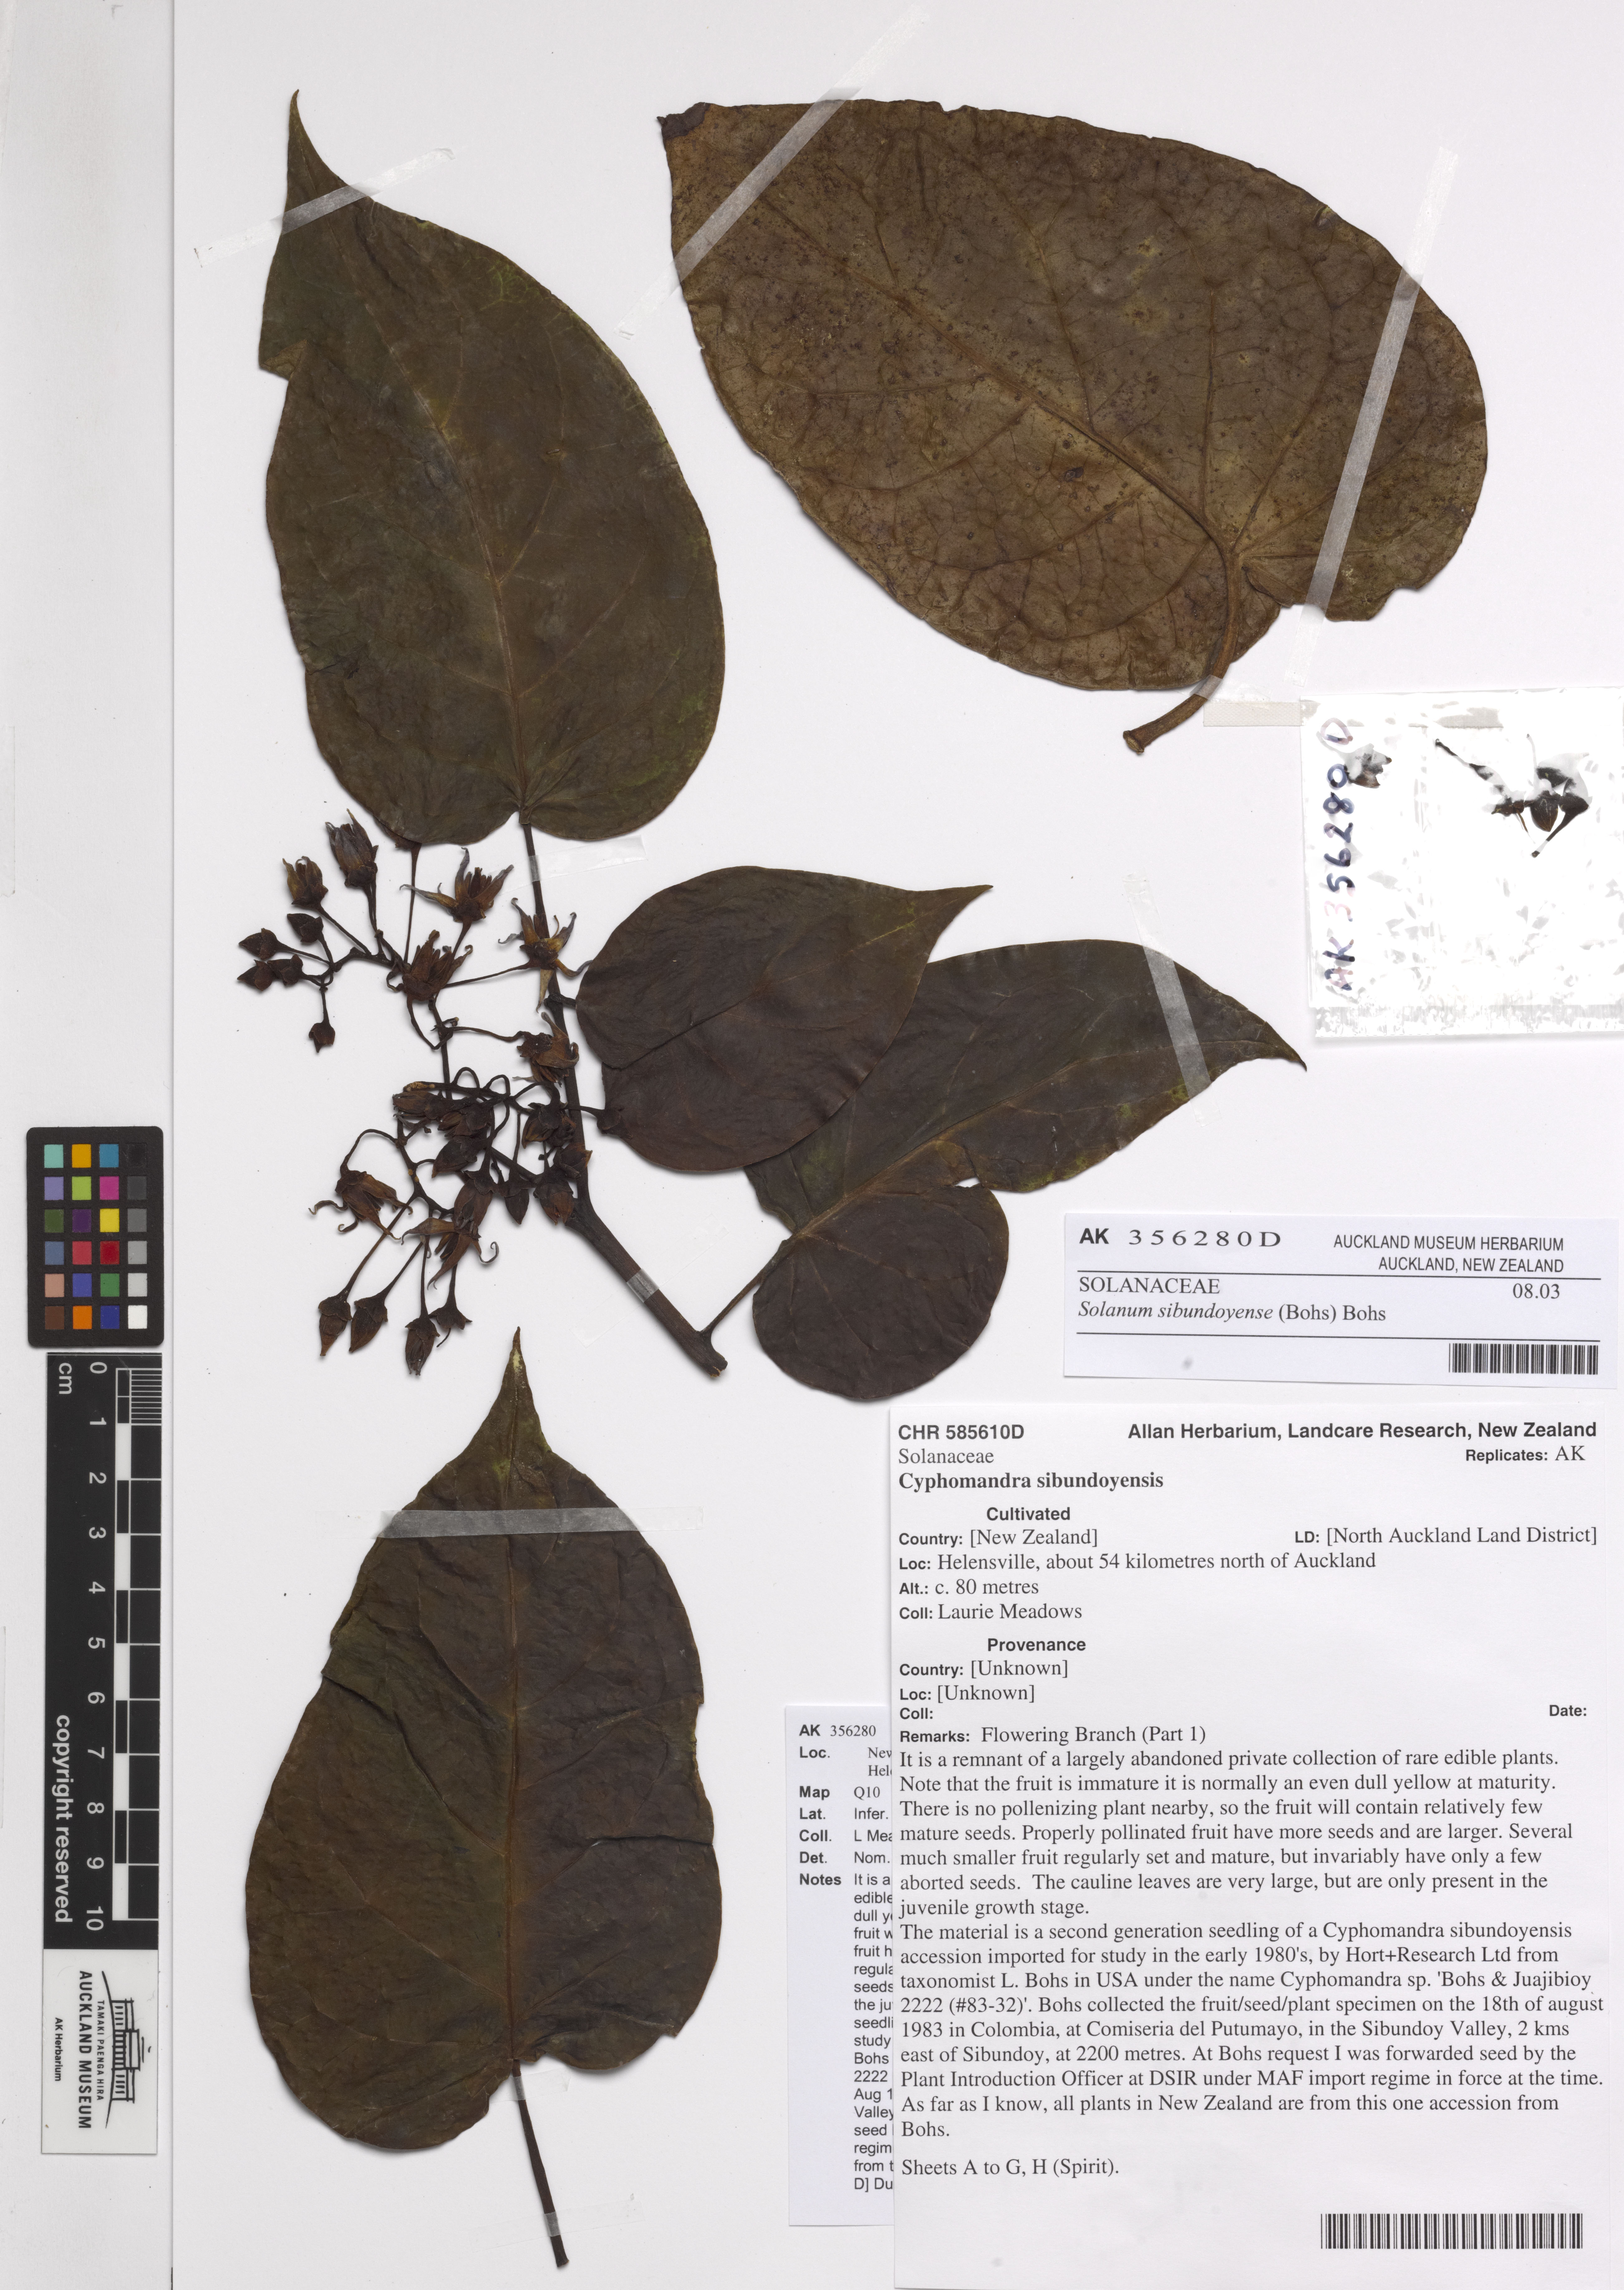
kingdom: Plantae
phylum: Tracheophyta
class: Magnoliopsida
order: Solanales
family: Solanaceae
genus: Solanum
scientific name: Solanum sibundoyense
